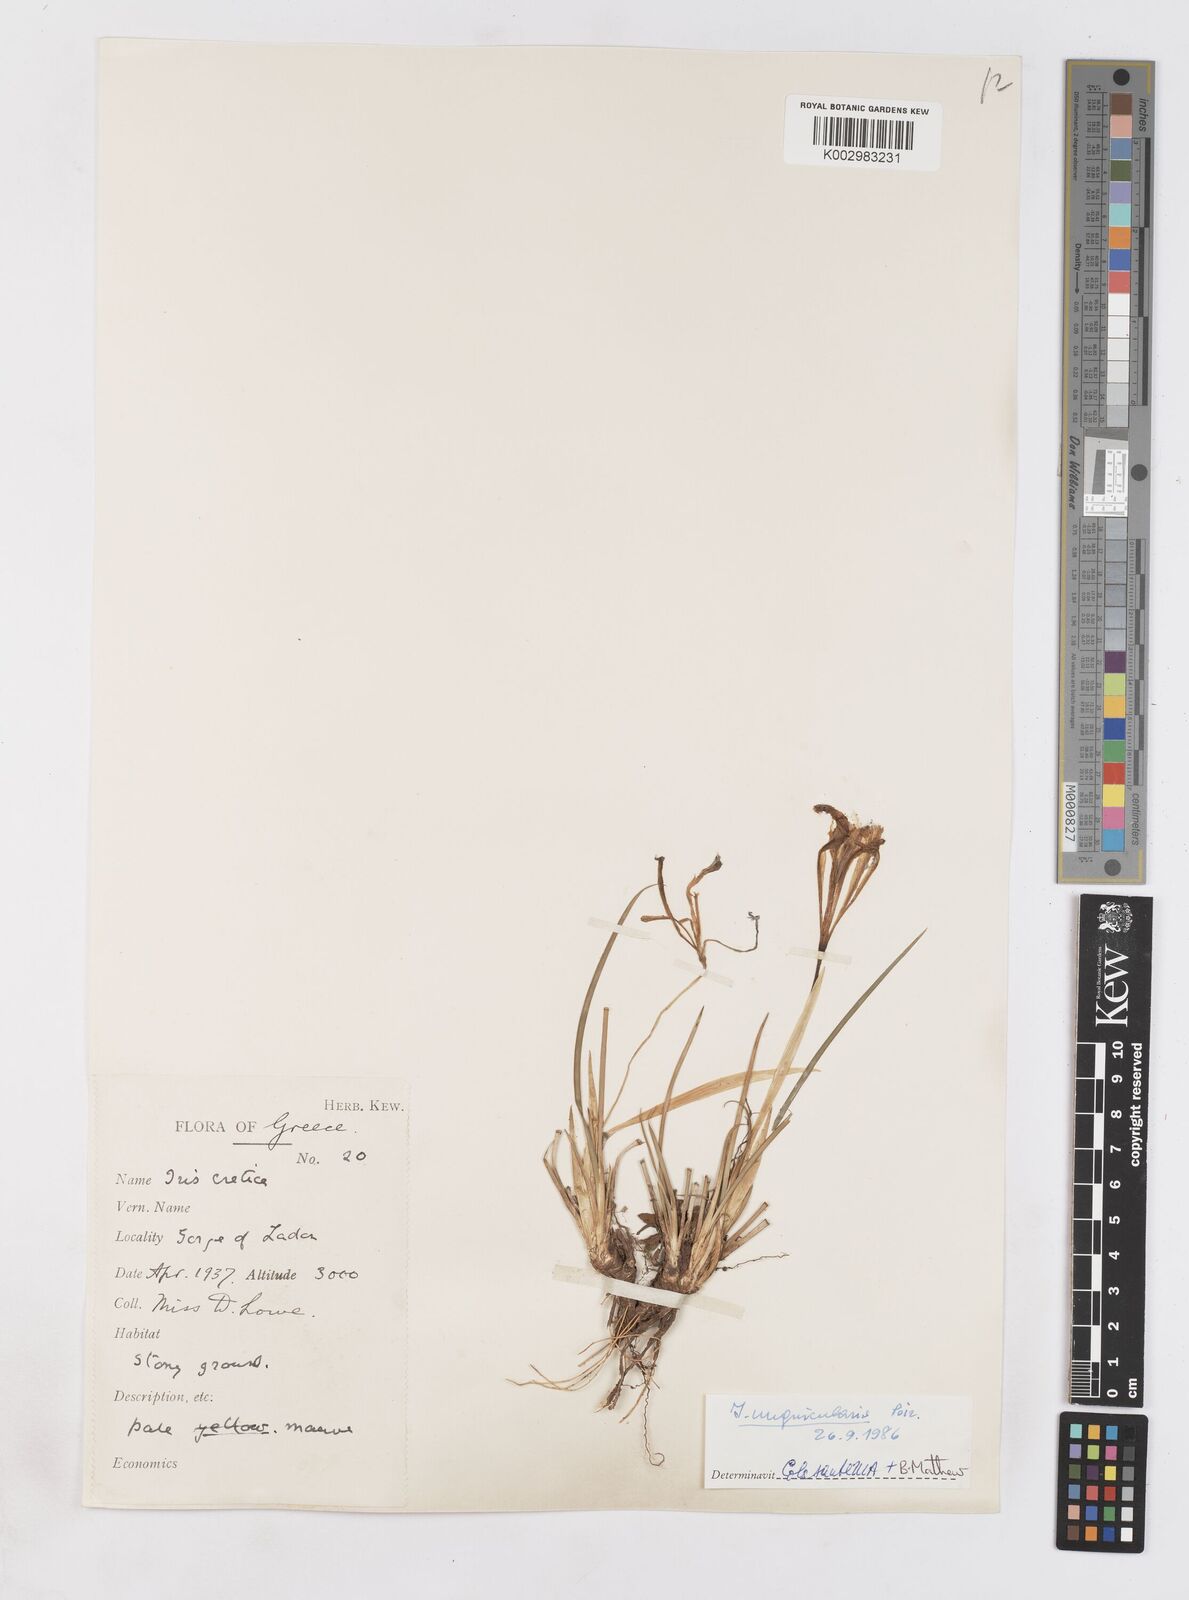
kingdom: Plantae
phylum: Tracheophyta
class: Liliopsida
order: Asparagales
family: Iridaceae
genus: Iris
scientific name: Iris unguicularis
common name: Algerian iris
